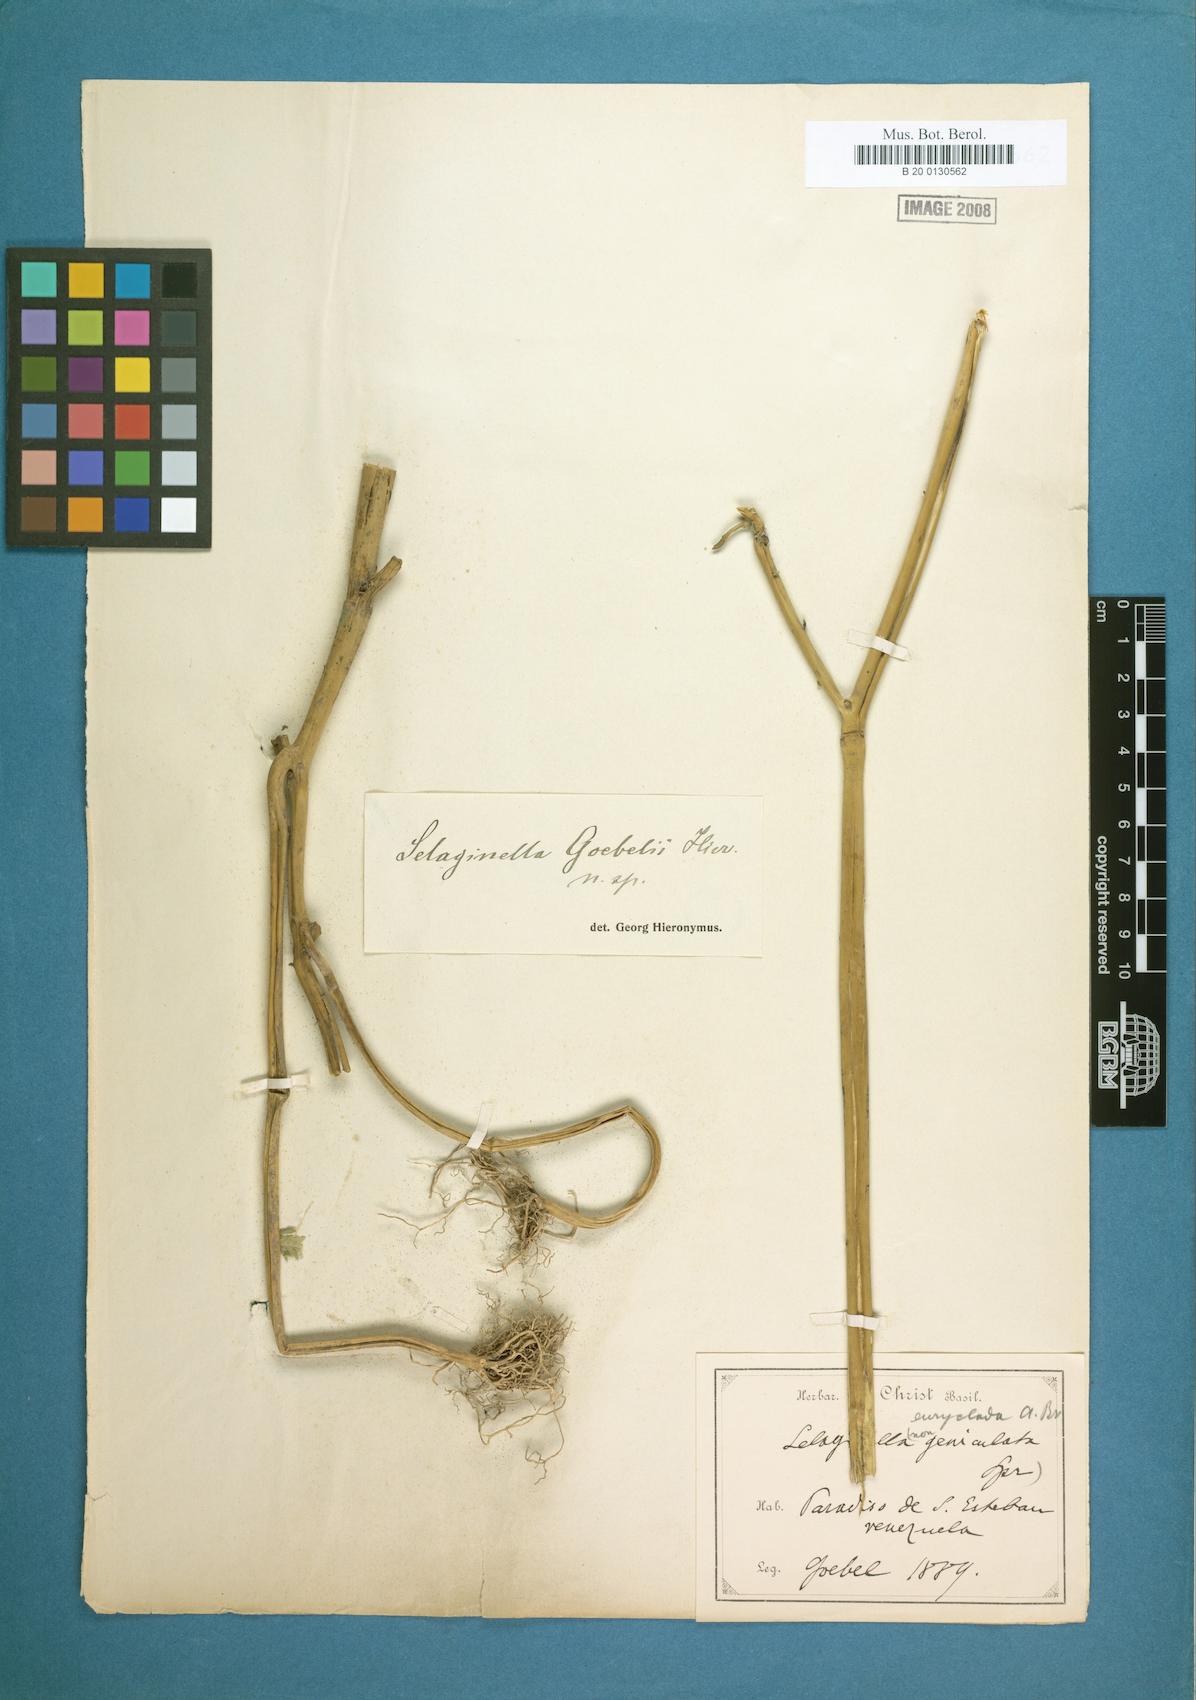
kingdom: Plantae
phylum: Tracheophyta
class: Lycopodiopsida
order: Selaginellales
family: Selaginellaceae
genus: Selaginella
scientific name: Selaginella parkeri
